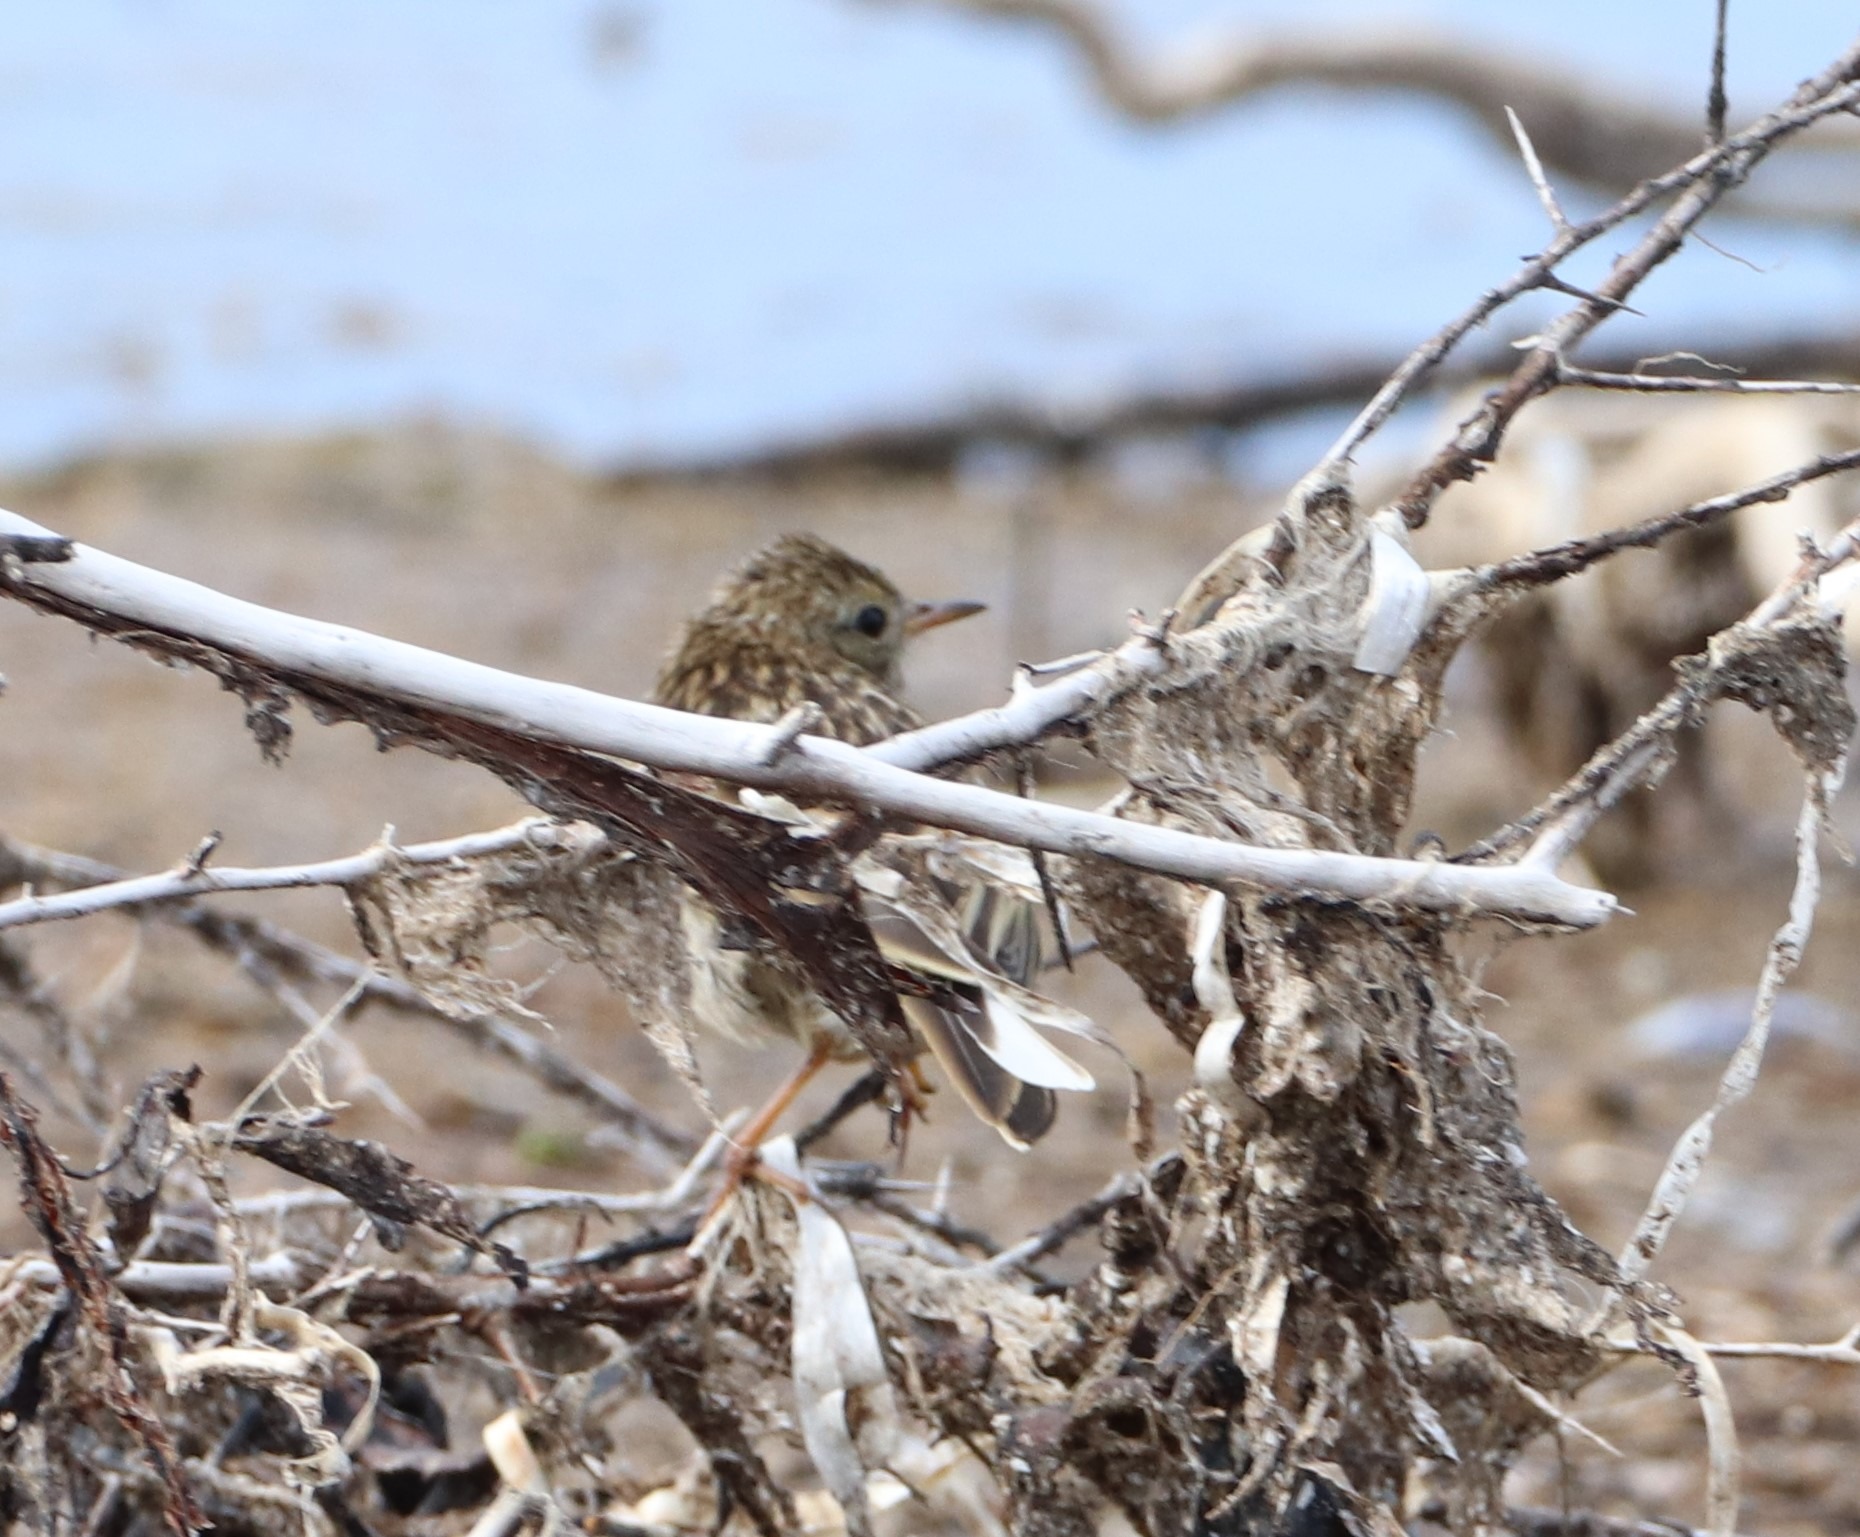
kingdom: Animalia
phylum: Chordata
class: Aves
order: Passeriformes
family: Motacillidae
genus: Anthus
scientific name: Anthus pratensis
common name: Engpiber
